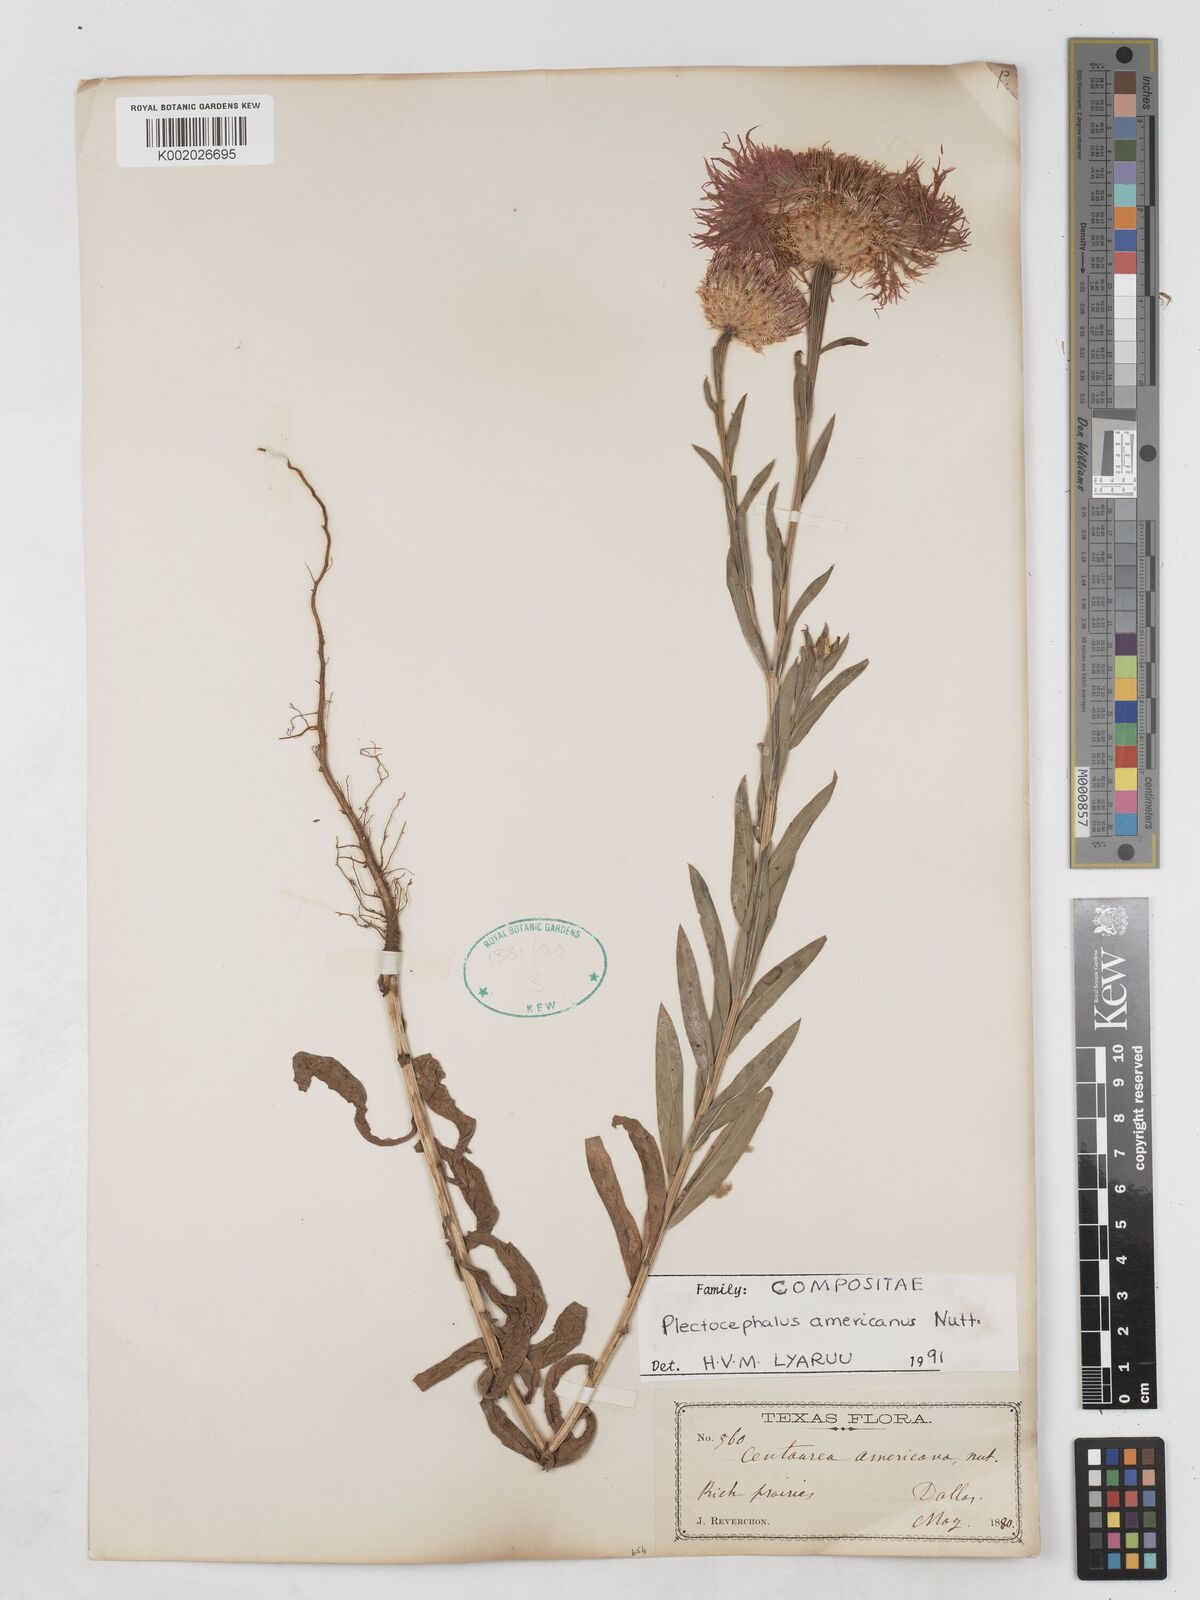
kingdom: Plantae
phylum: Tracheophyta
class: Magnoliopsida
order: Asterales
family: Asteraceae
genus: Plectocephalus
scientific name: Plectocephalus americanus
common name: American basket-flower
